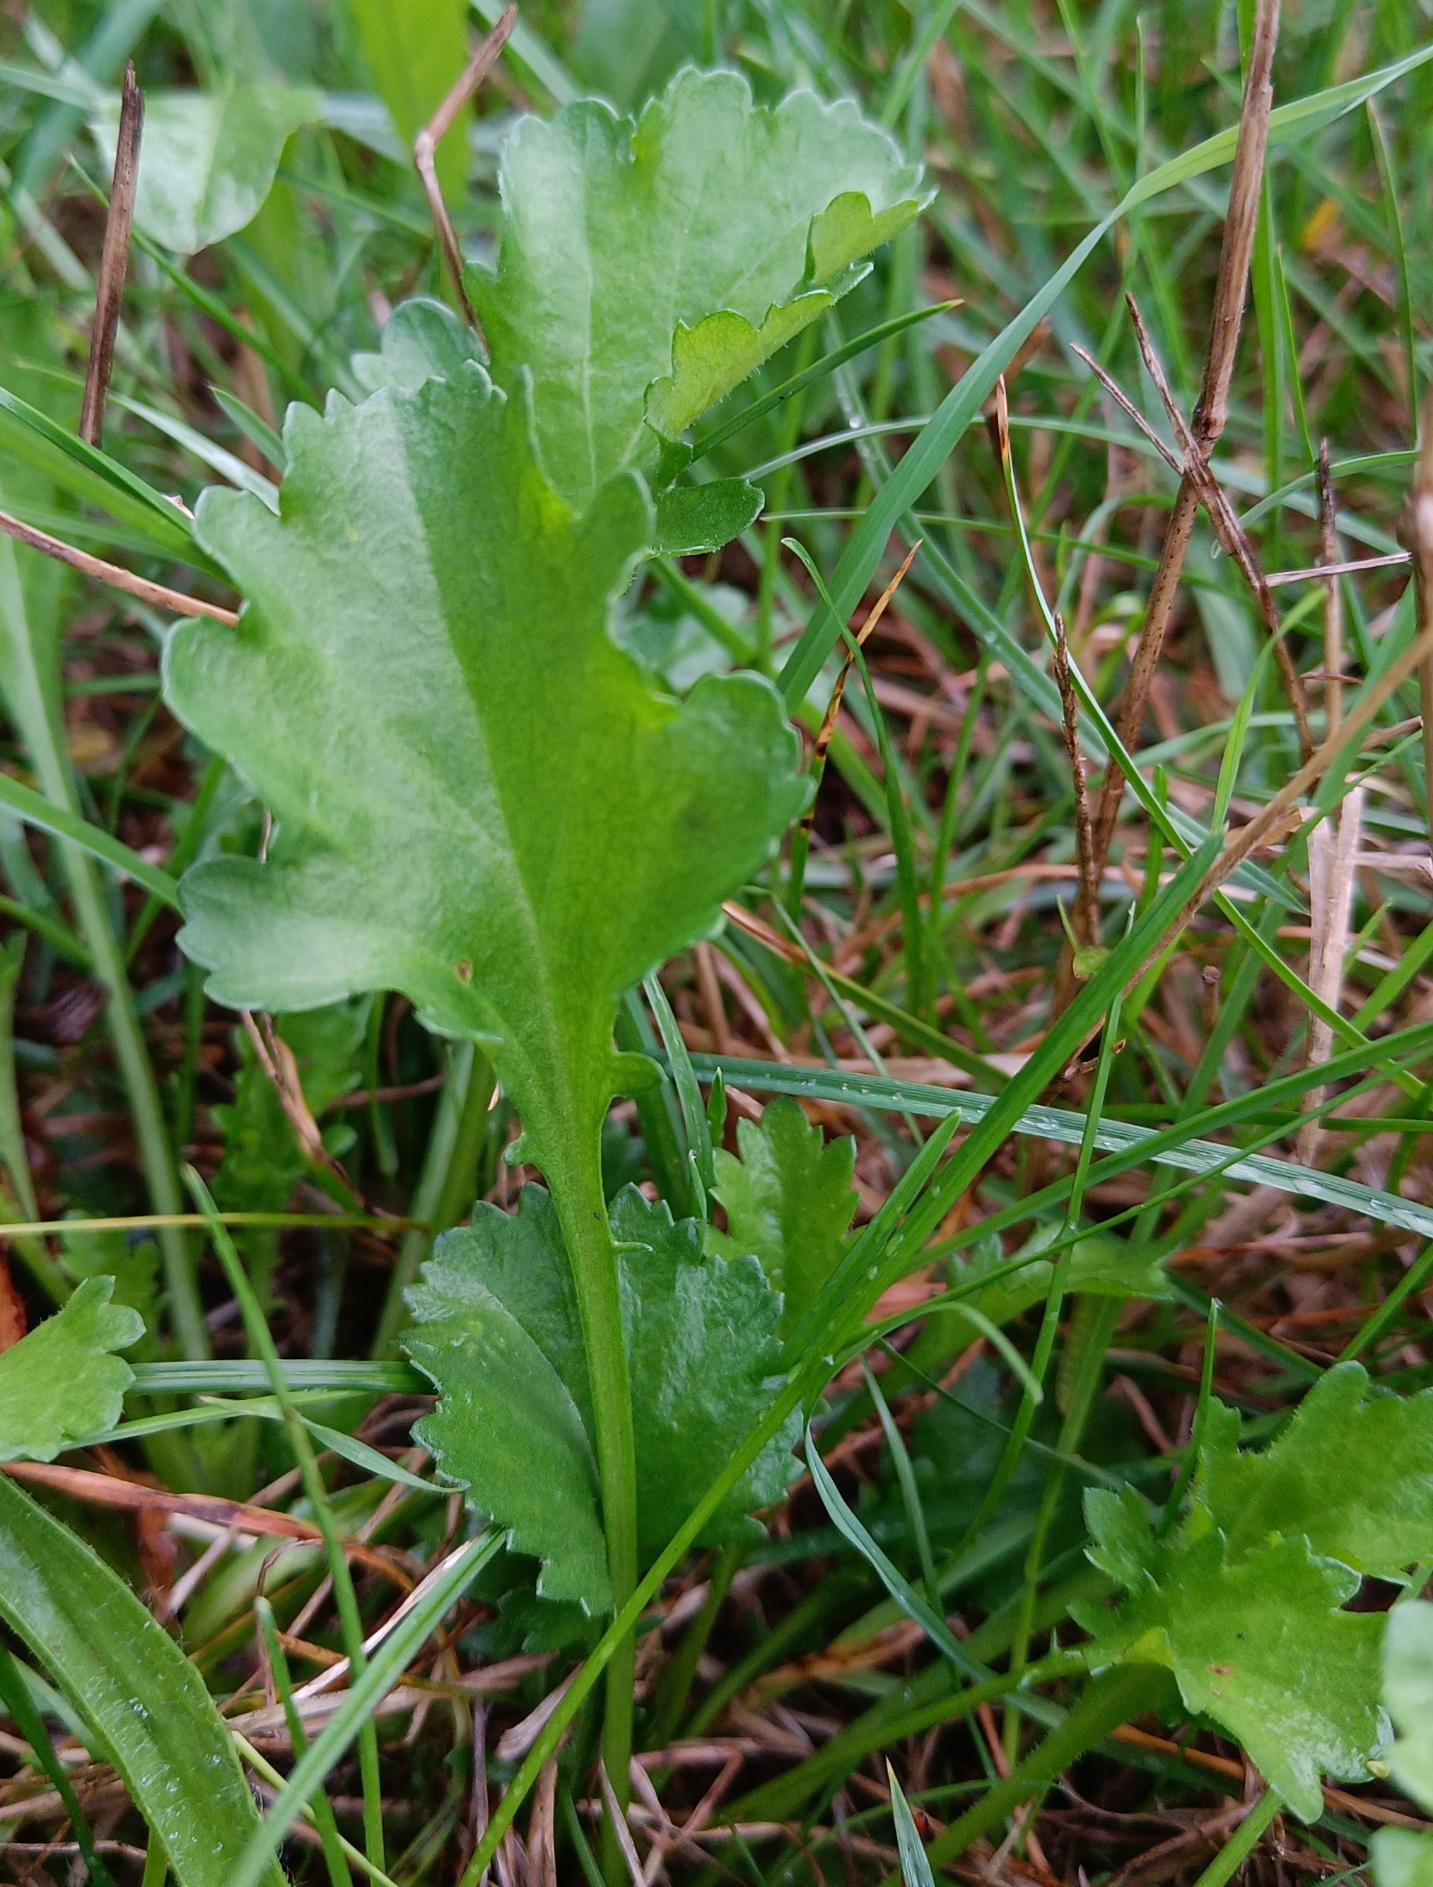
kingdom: Plantae
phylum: Tracheophyta
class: Magnoliopsida
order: Asterales
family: Asteraceae
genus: Leucanthemum
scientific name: Leucanthemum vulgare
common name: Hvid okseøje
